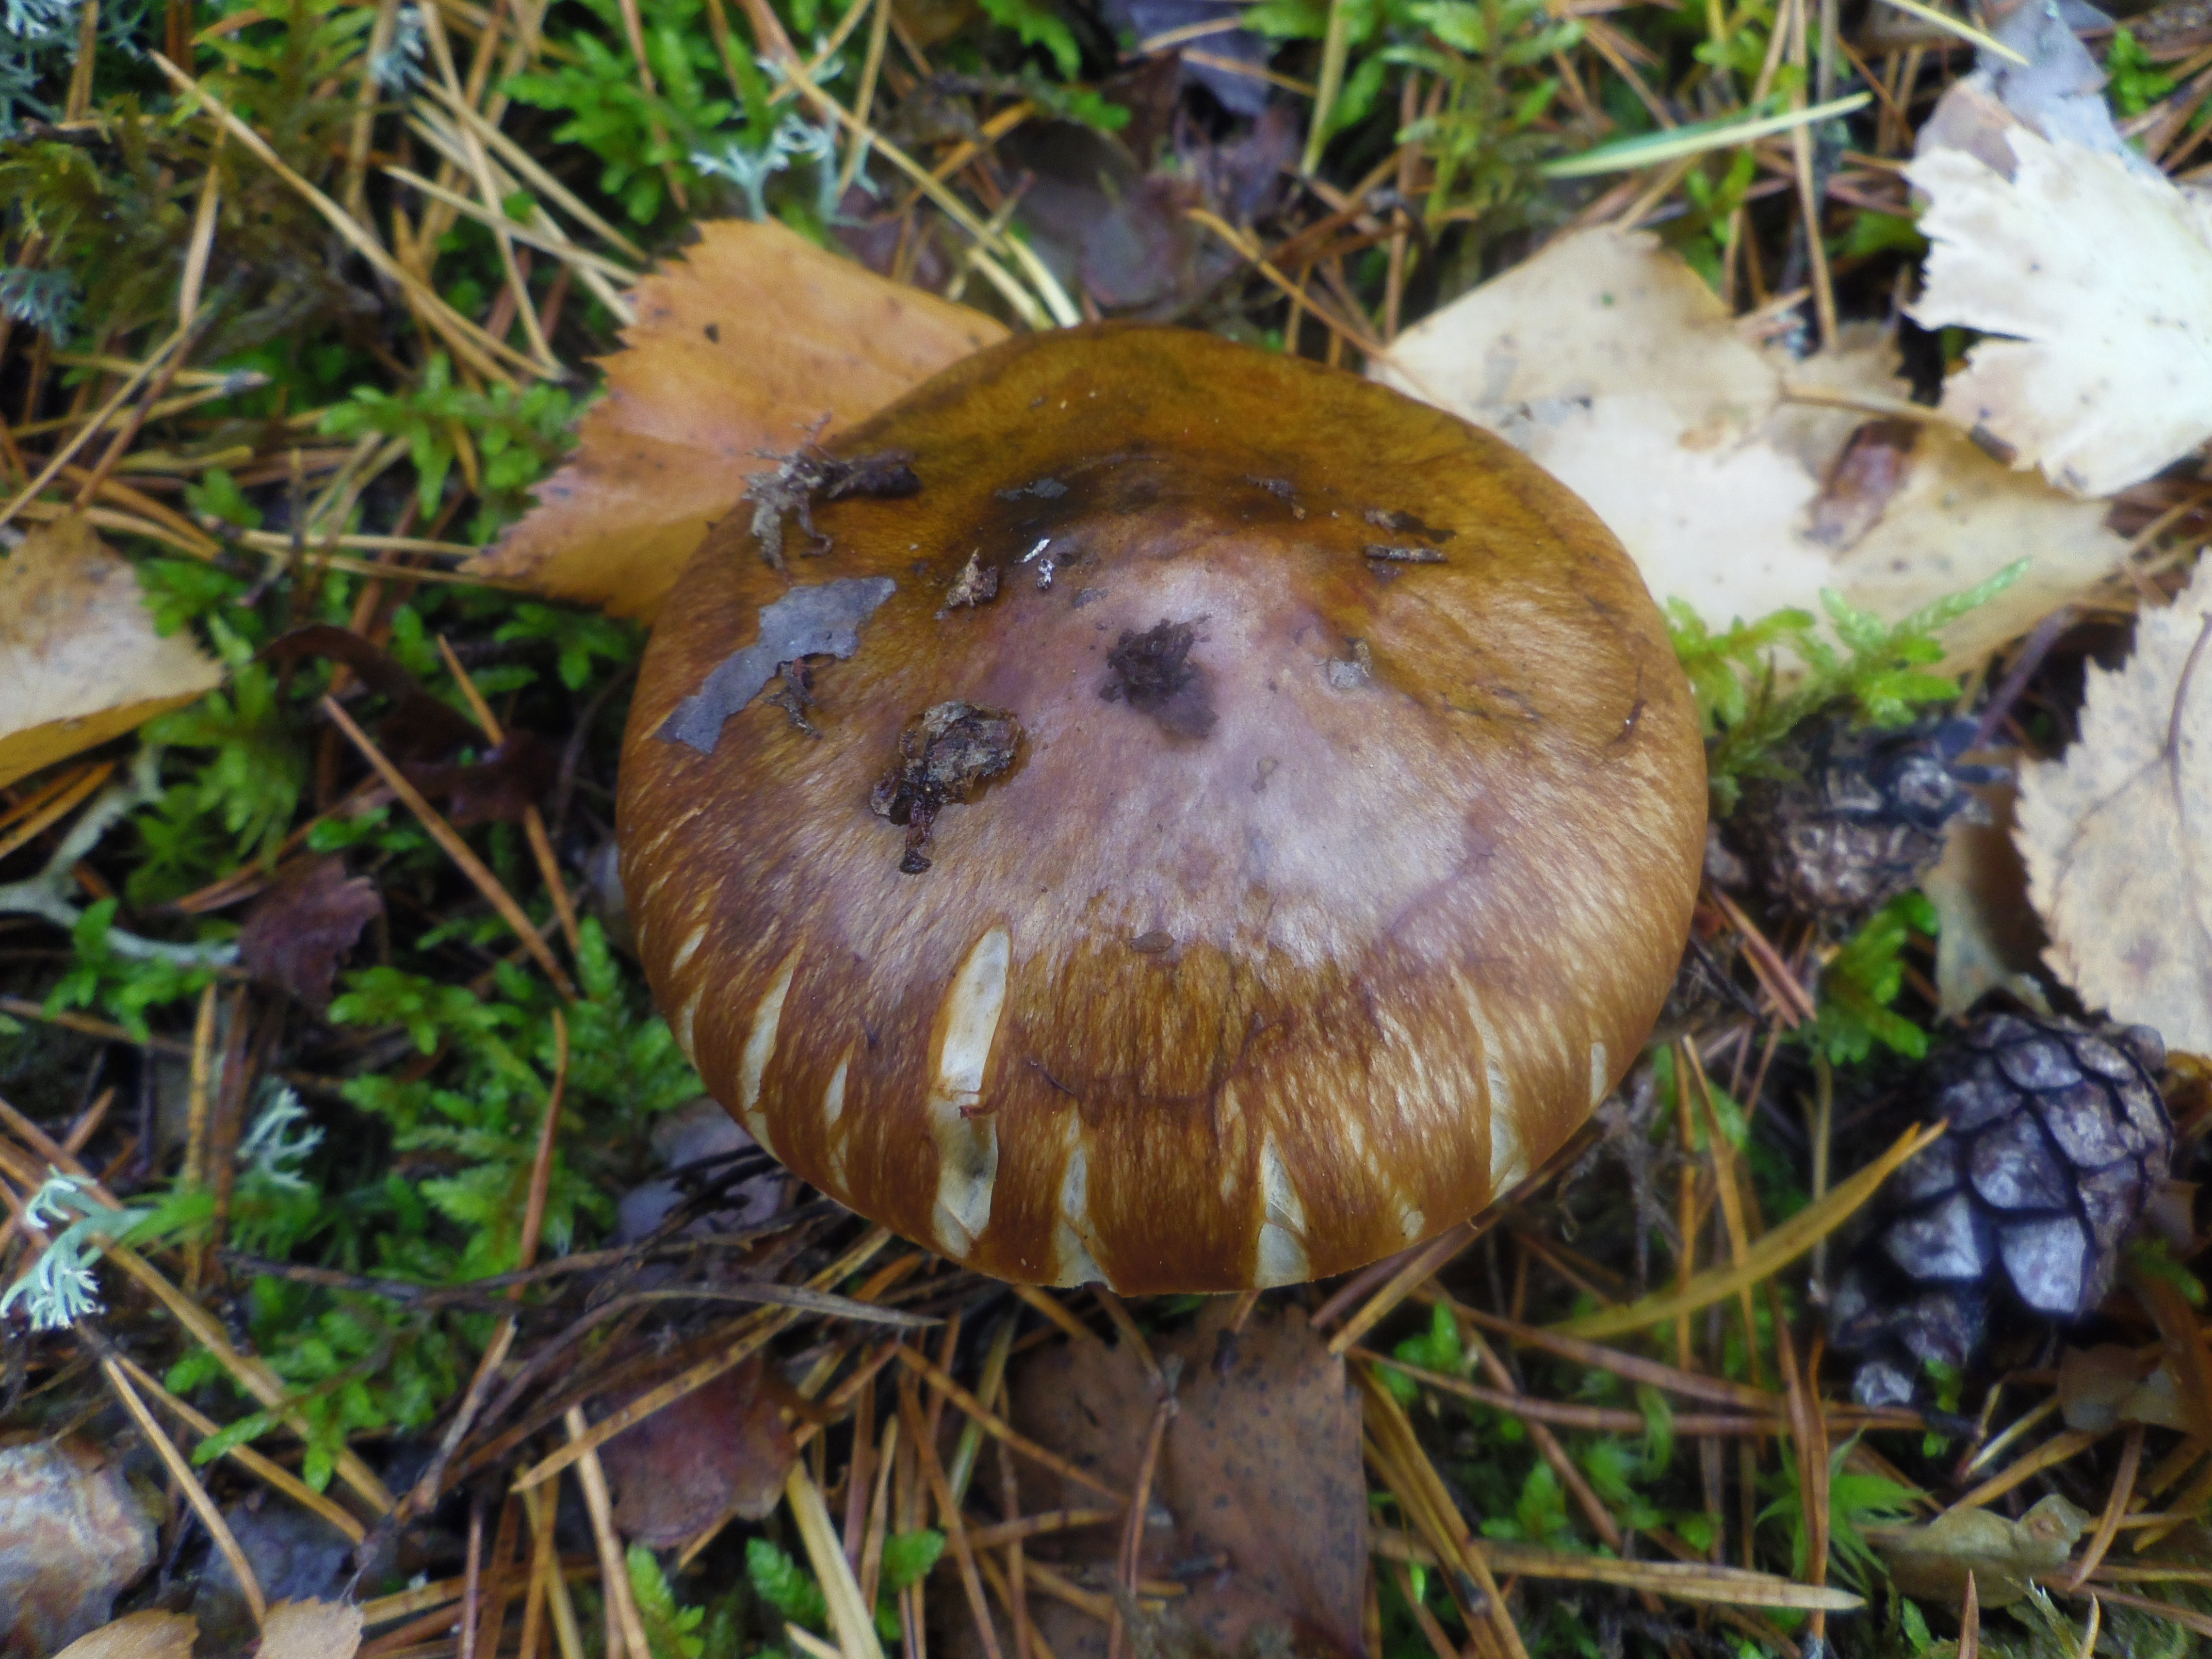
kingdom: Fungi
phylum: Basidiomycota
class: Agaricomycetes
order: Agaricales
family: Tricholomataceae
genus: Tricholoma
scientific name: Tricholoma focale
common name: Booted knight
